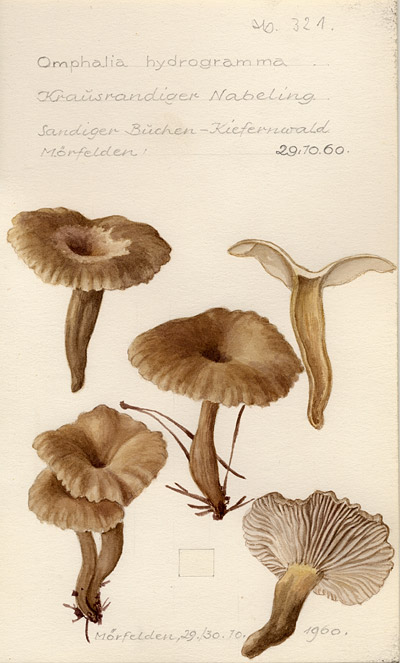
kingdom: Fungi
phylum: Basidiomycota
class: Agaricomycetes
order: Agaricales
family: Tricholomataceae
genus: Clitocybe
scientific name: Clitocybe phaeophthalma
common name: Chicken run funnel
